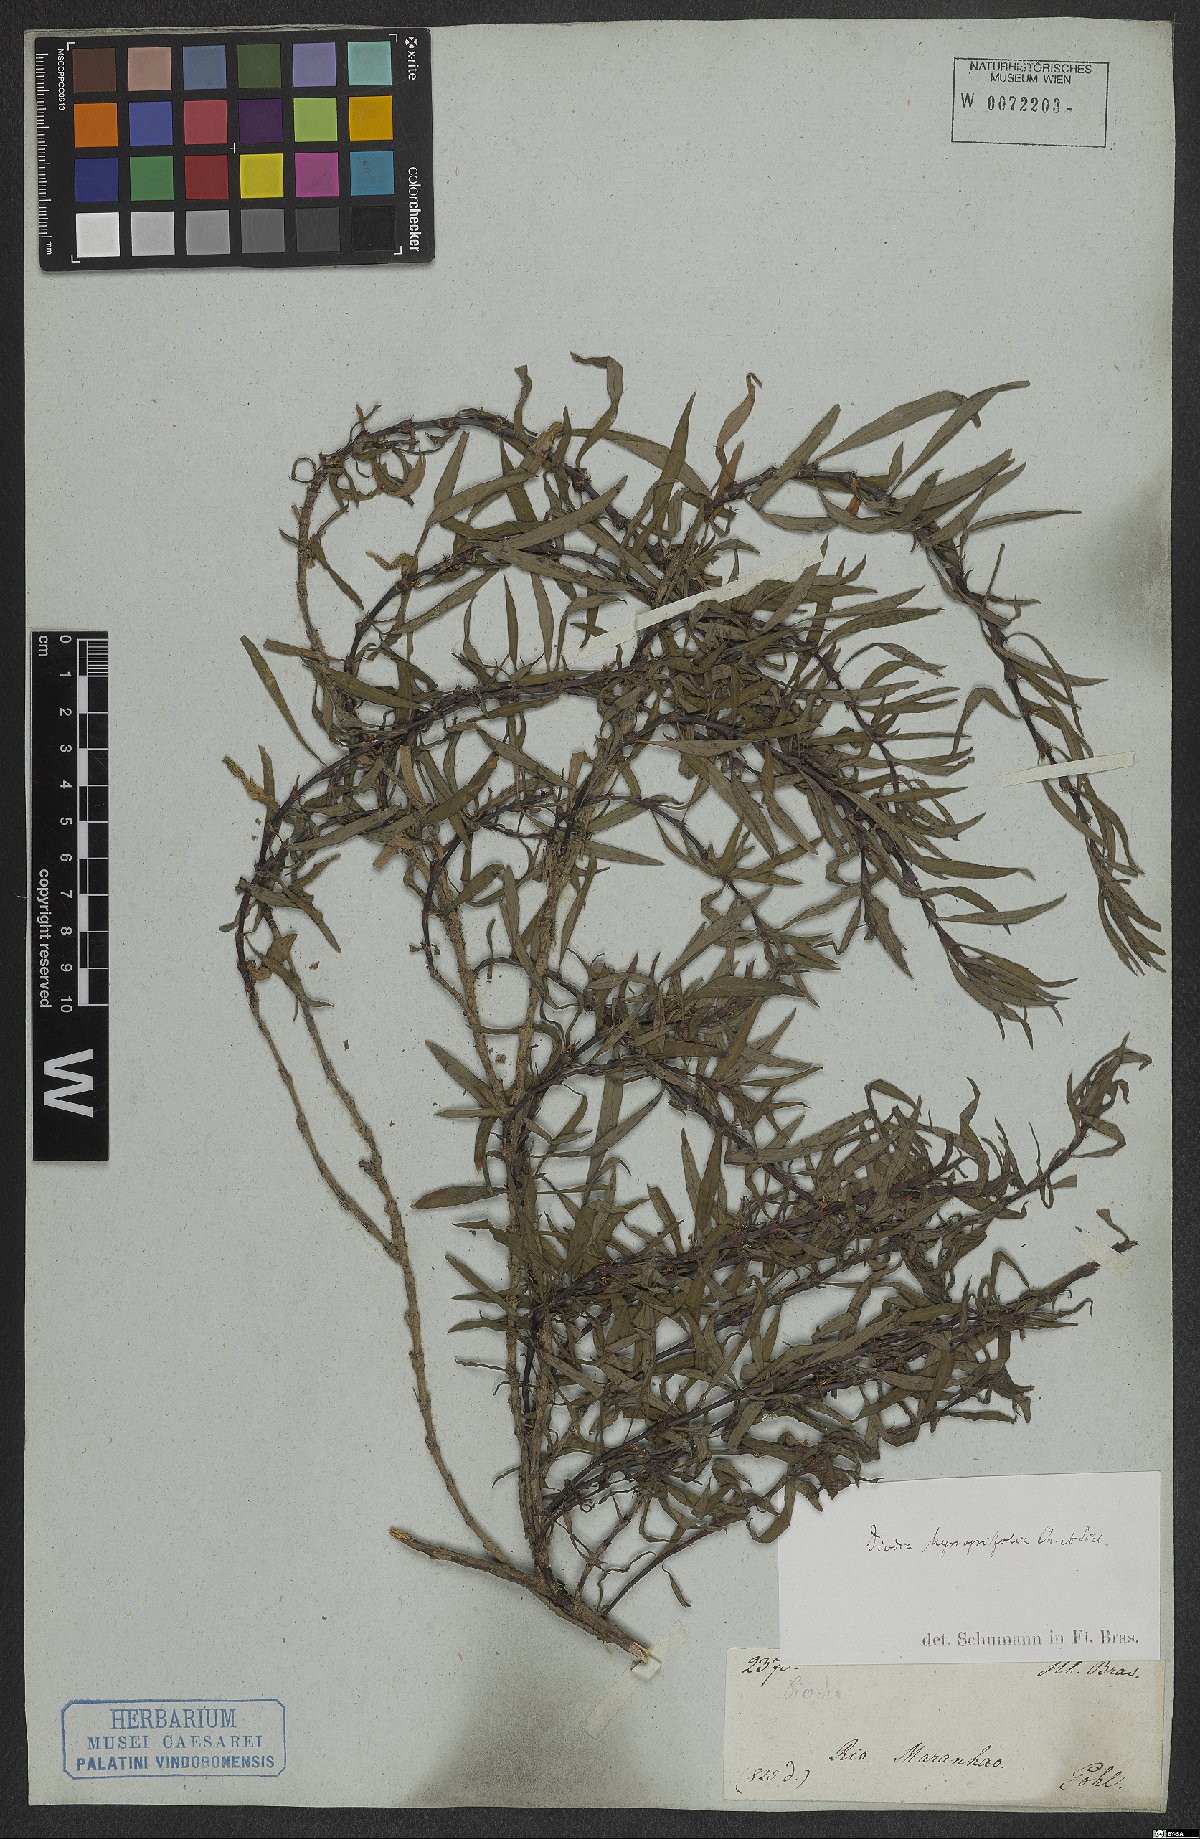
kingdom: Plantae
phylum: Tracheophyta
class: Magnoliopsida
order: Gentianales
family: Rubiaceae
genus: Spermacoce
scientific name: Spermacoce hyssopifolia
